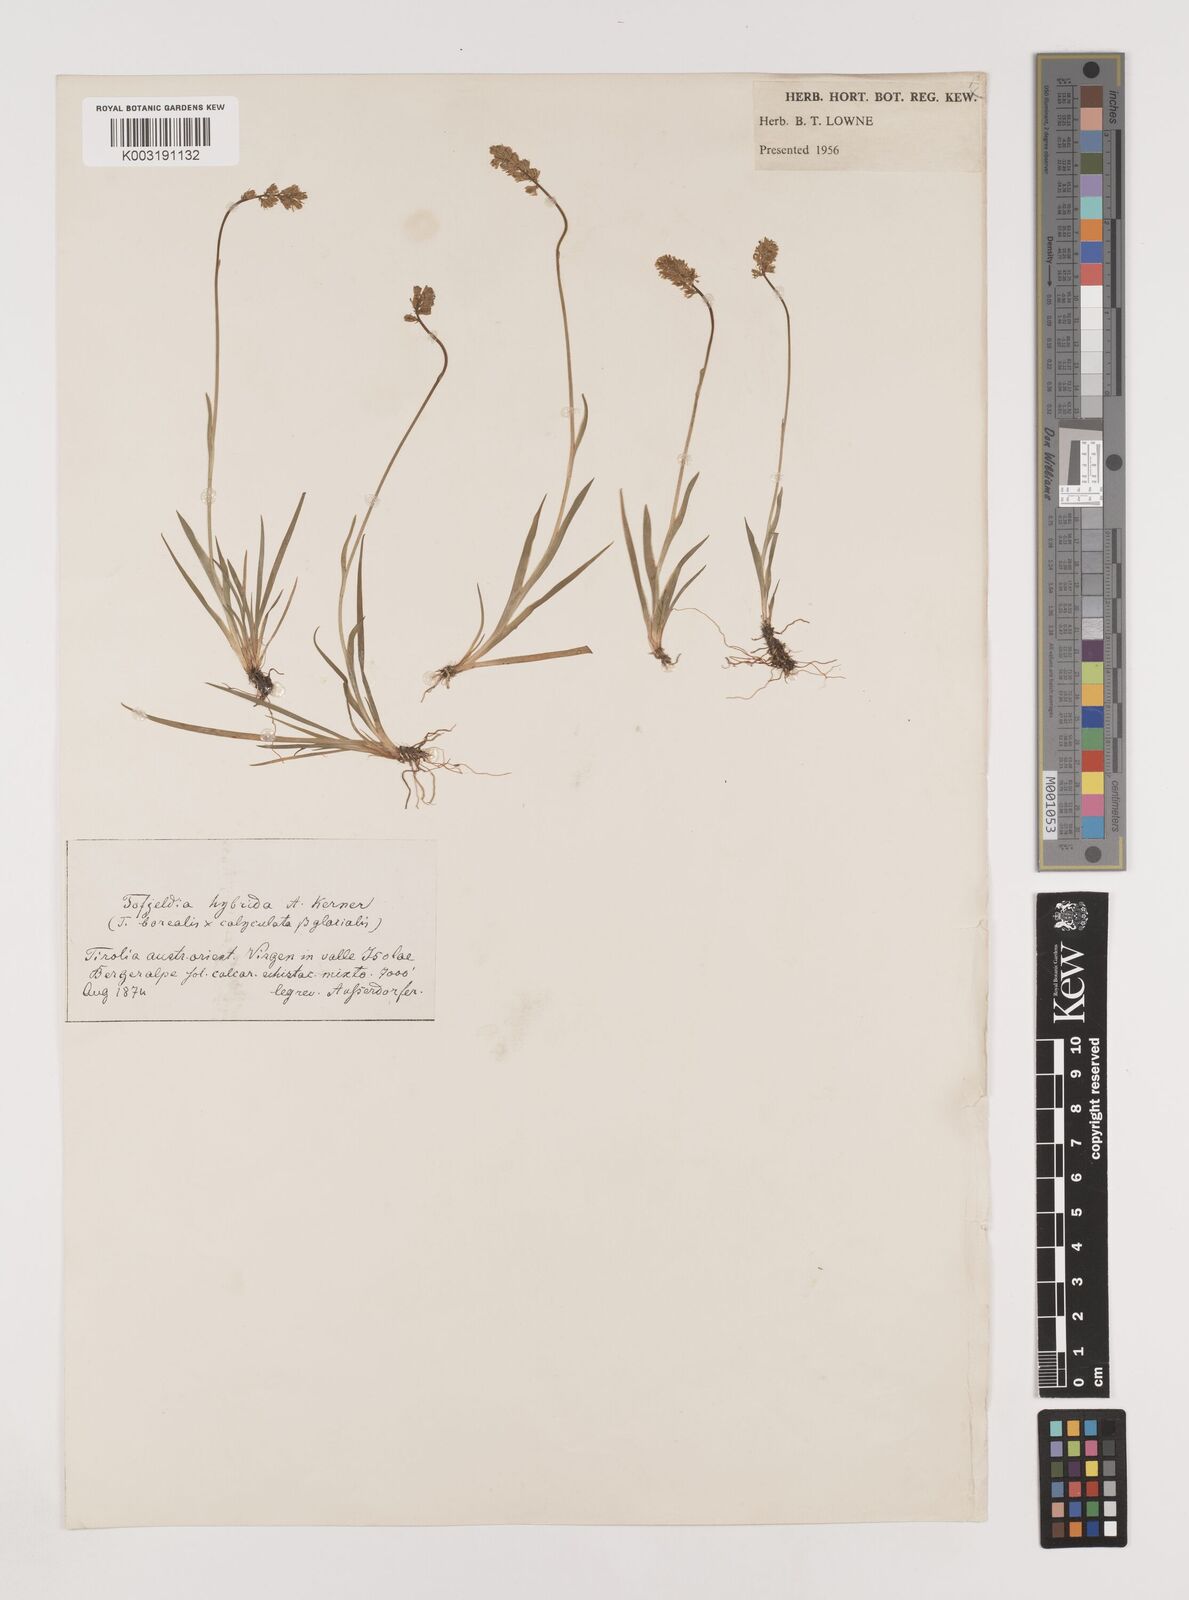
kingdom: Plantae
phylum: Tracheophyta
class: Liliopsida
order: Alismatales
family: Tofieldiaceae
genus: Tofieldia
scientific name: Tofieldia hybrida
